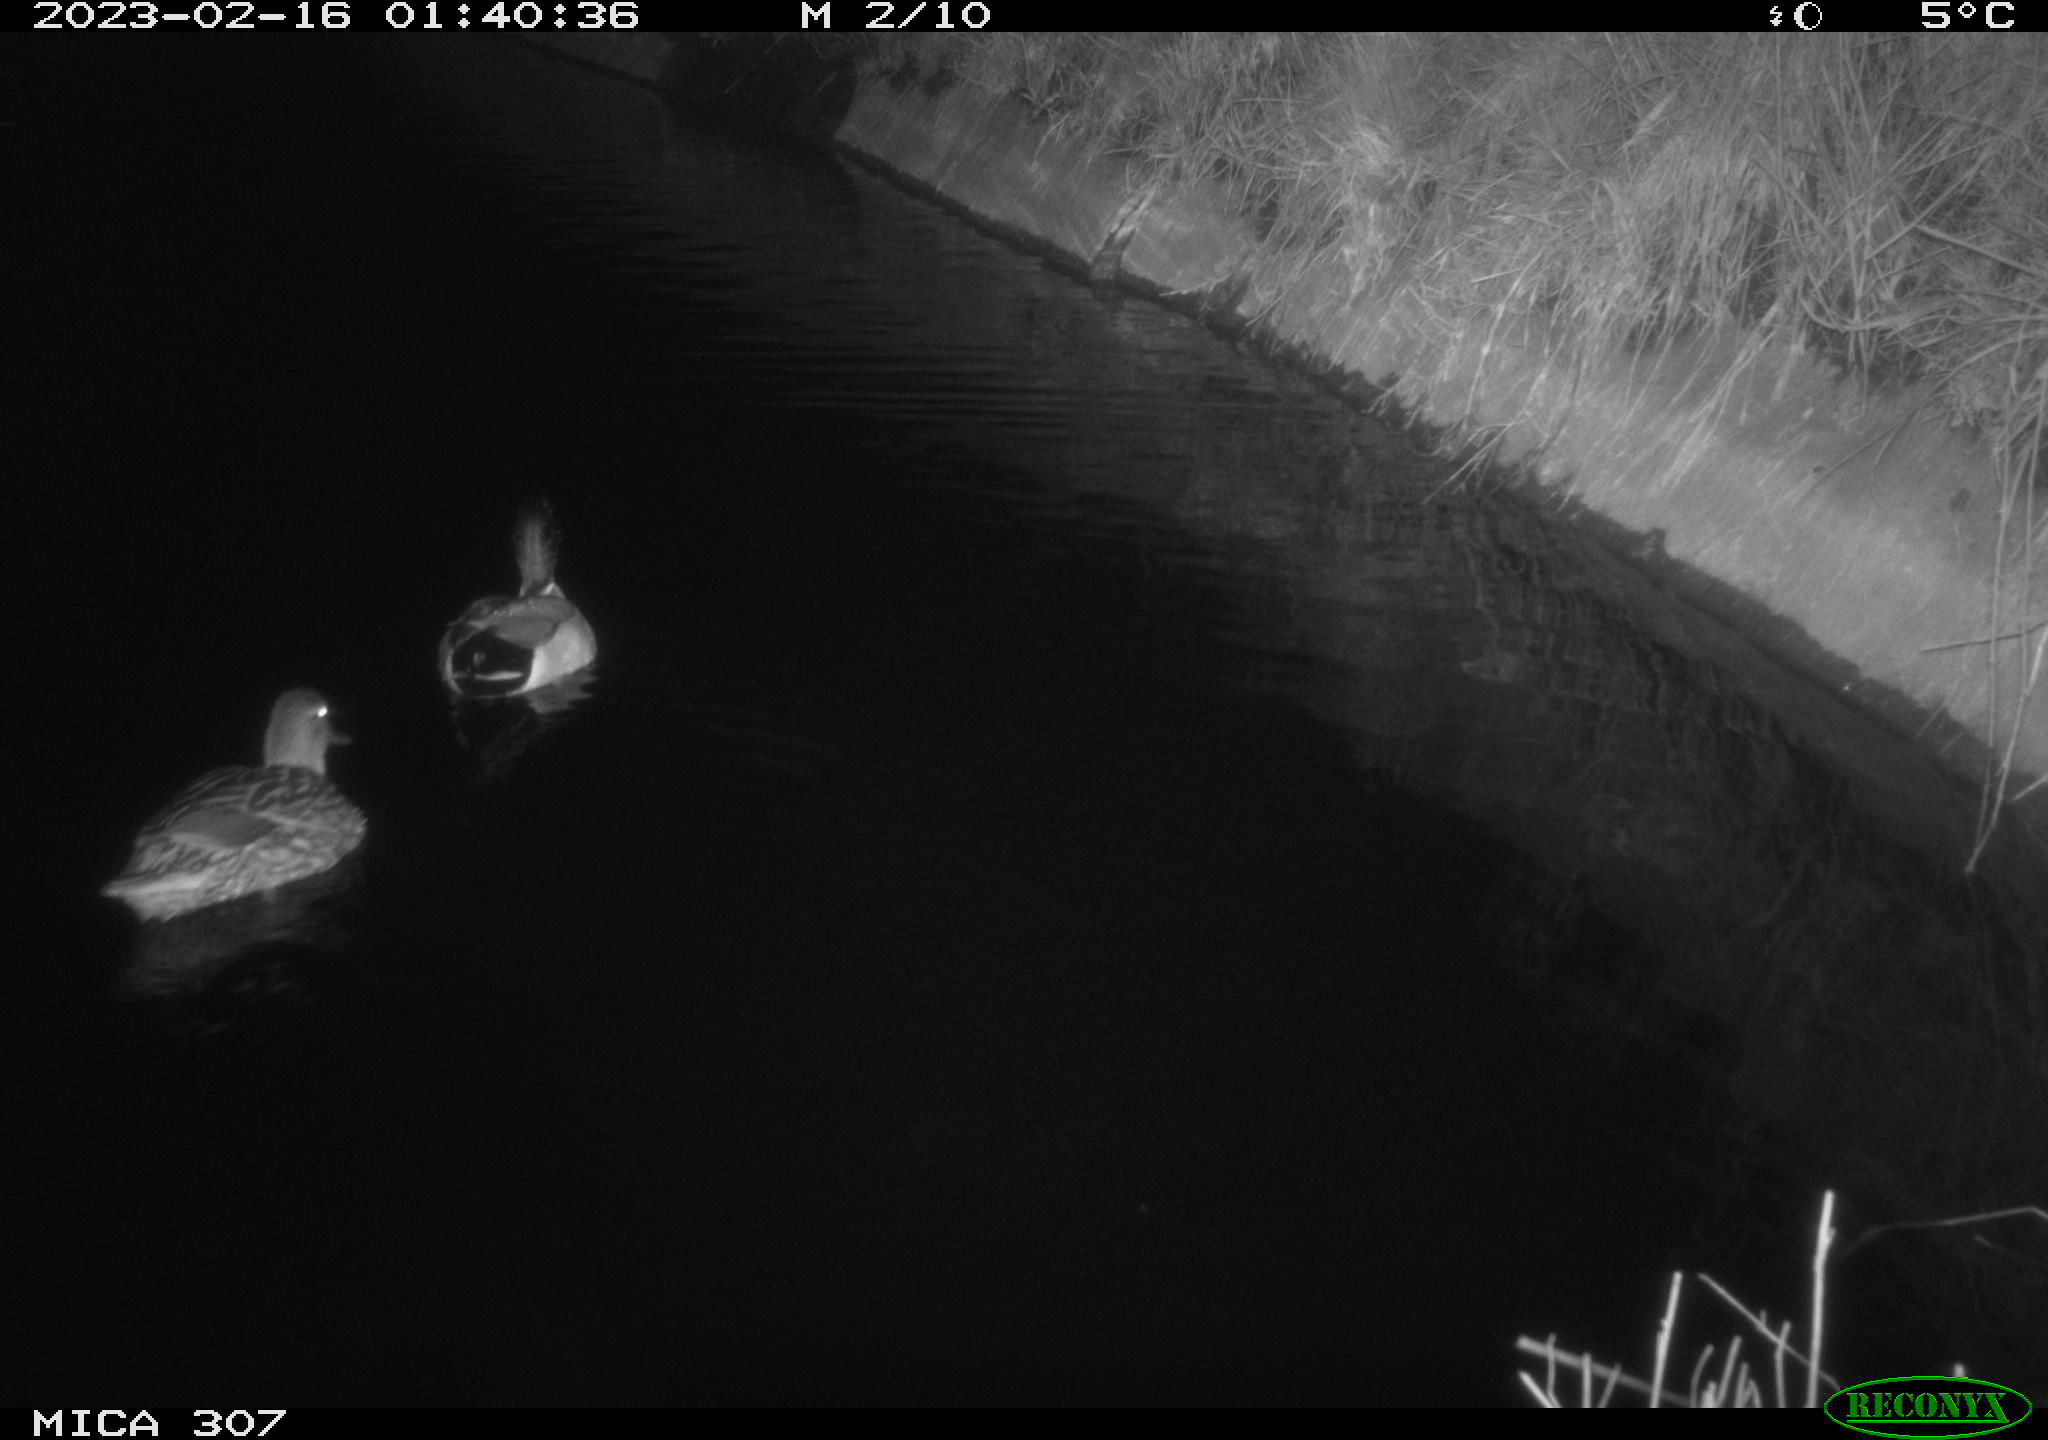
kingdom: Animalia
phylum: Chordata
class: Aves
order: Anseriformes
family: Anatidae
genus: Anas
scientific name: Anas
